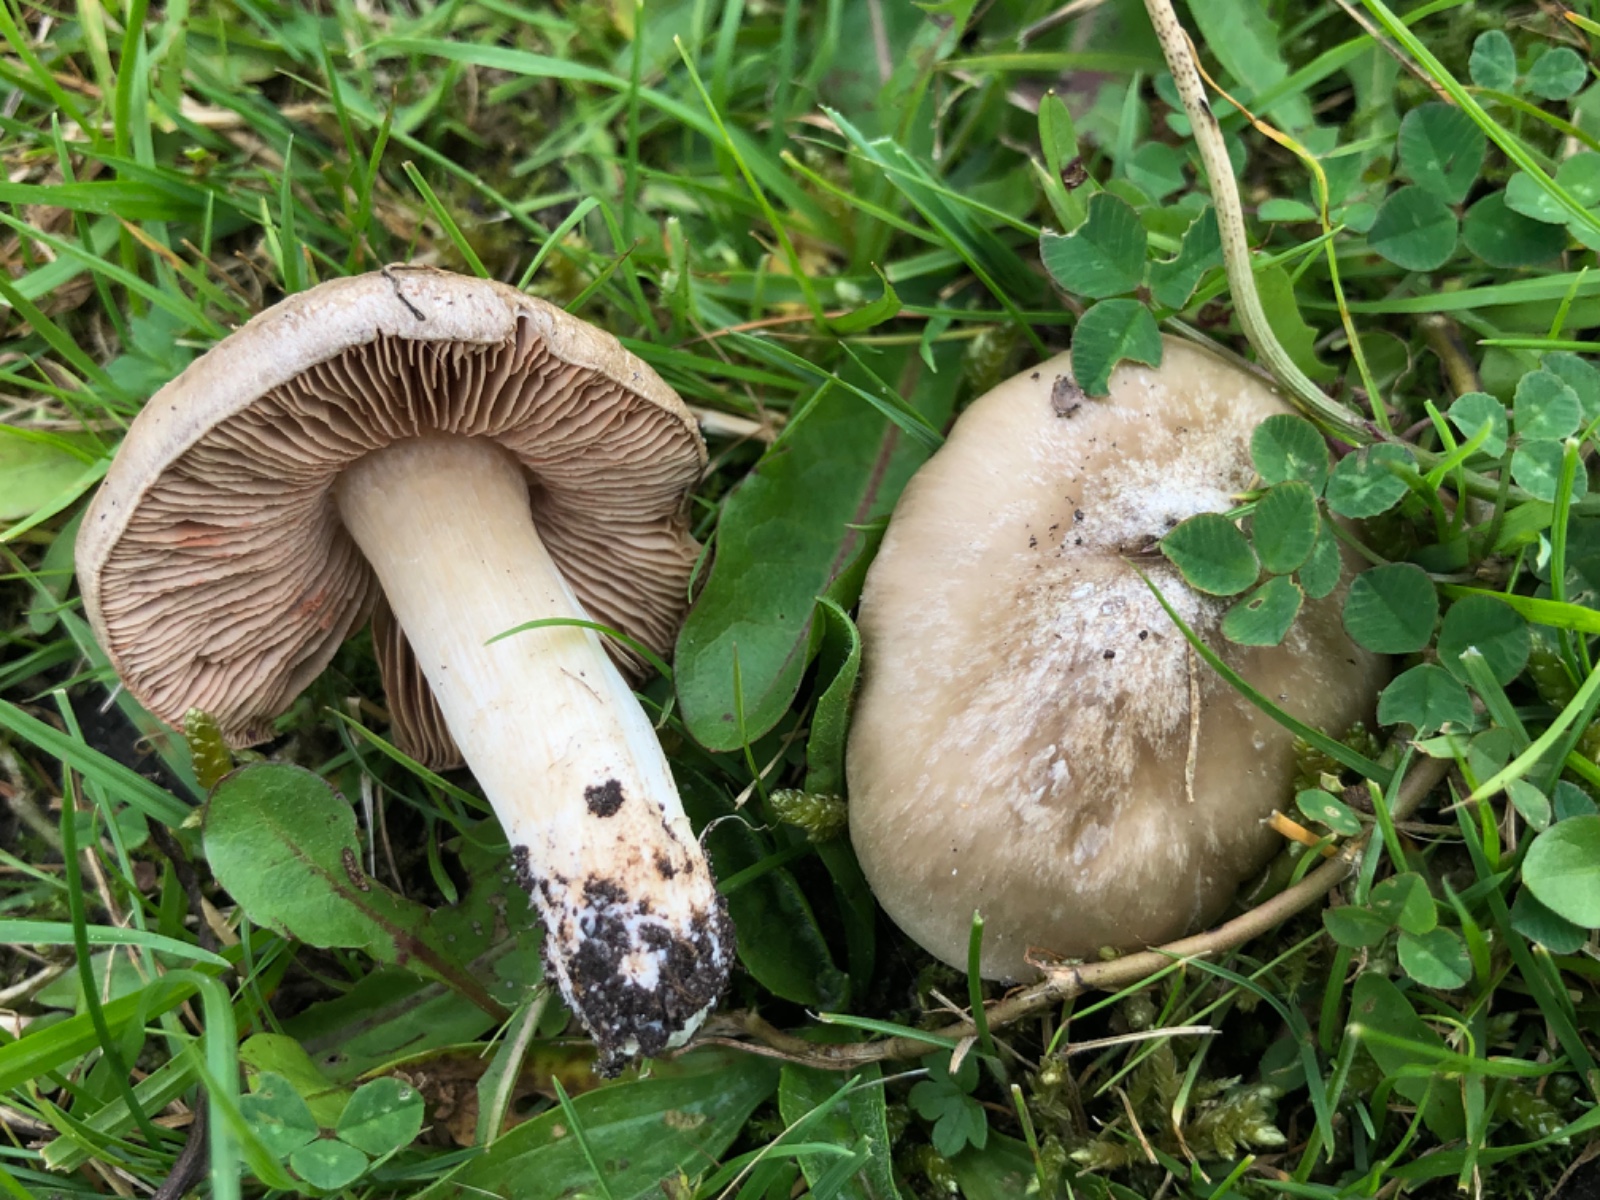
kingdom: Fungi
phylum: Basidiomycota
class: Agaricomycetes
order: Agaricales
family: Entolomataceae
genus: Entoloma
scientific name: Entoloma prunuloides
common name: mel-rødblad
